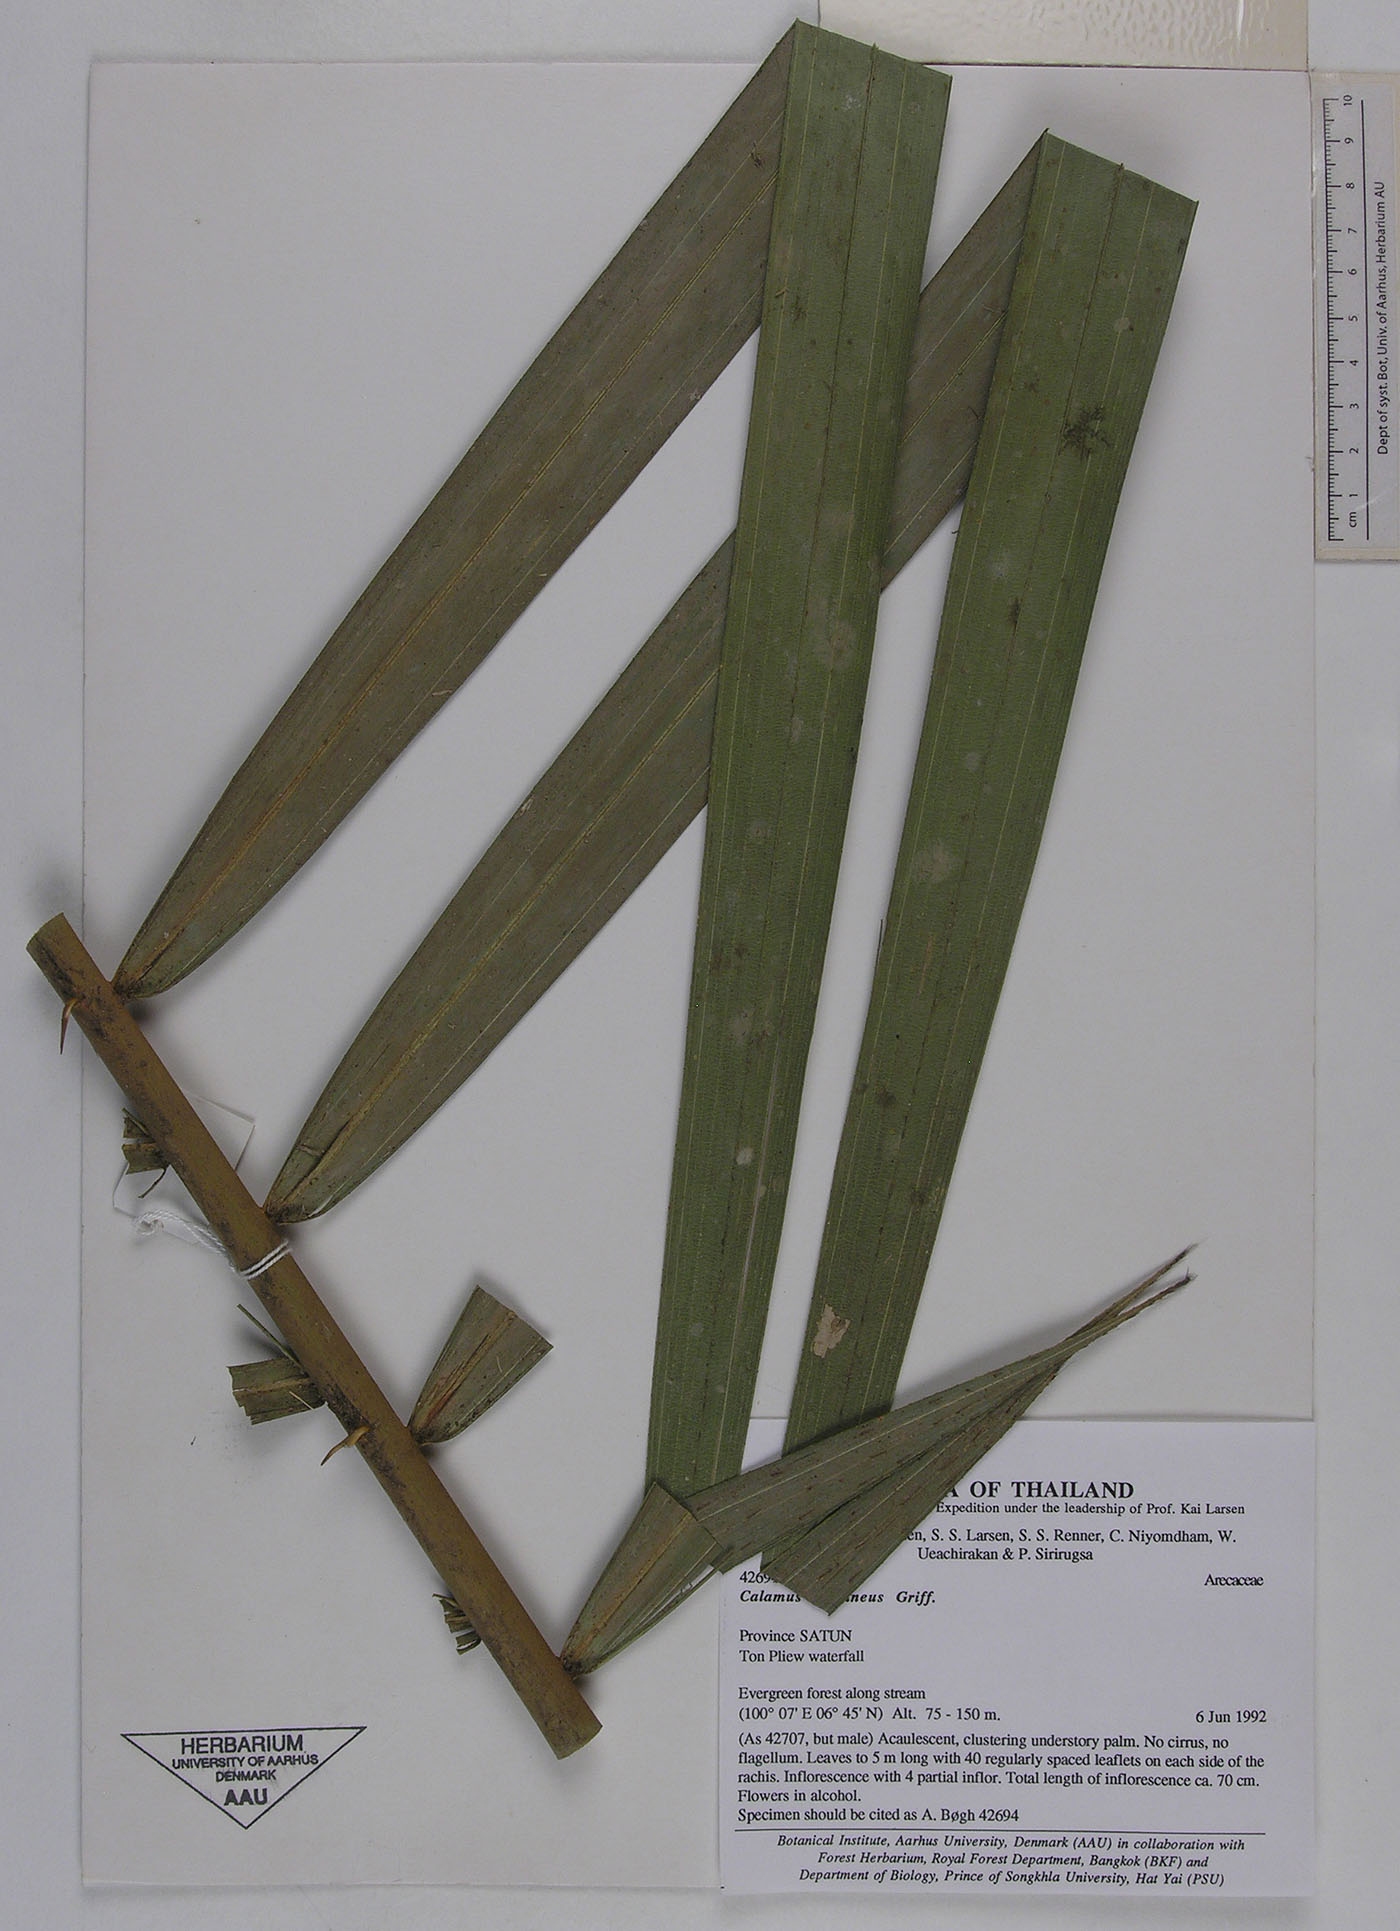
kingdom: Plantae
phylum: Tracheophyta
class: Liliopsida
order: Arecales
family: Arecaceae
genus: Calamus
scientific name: Calamus castaneus
